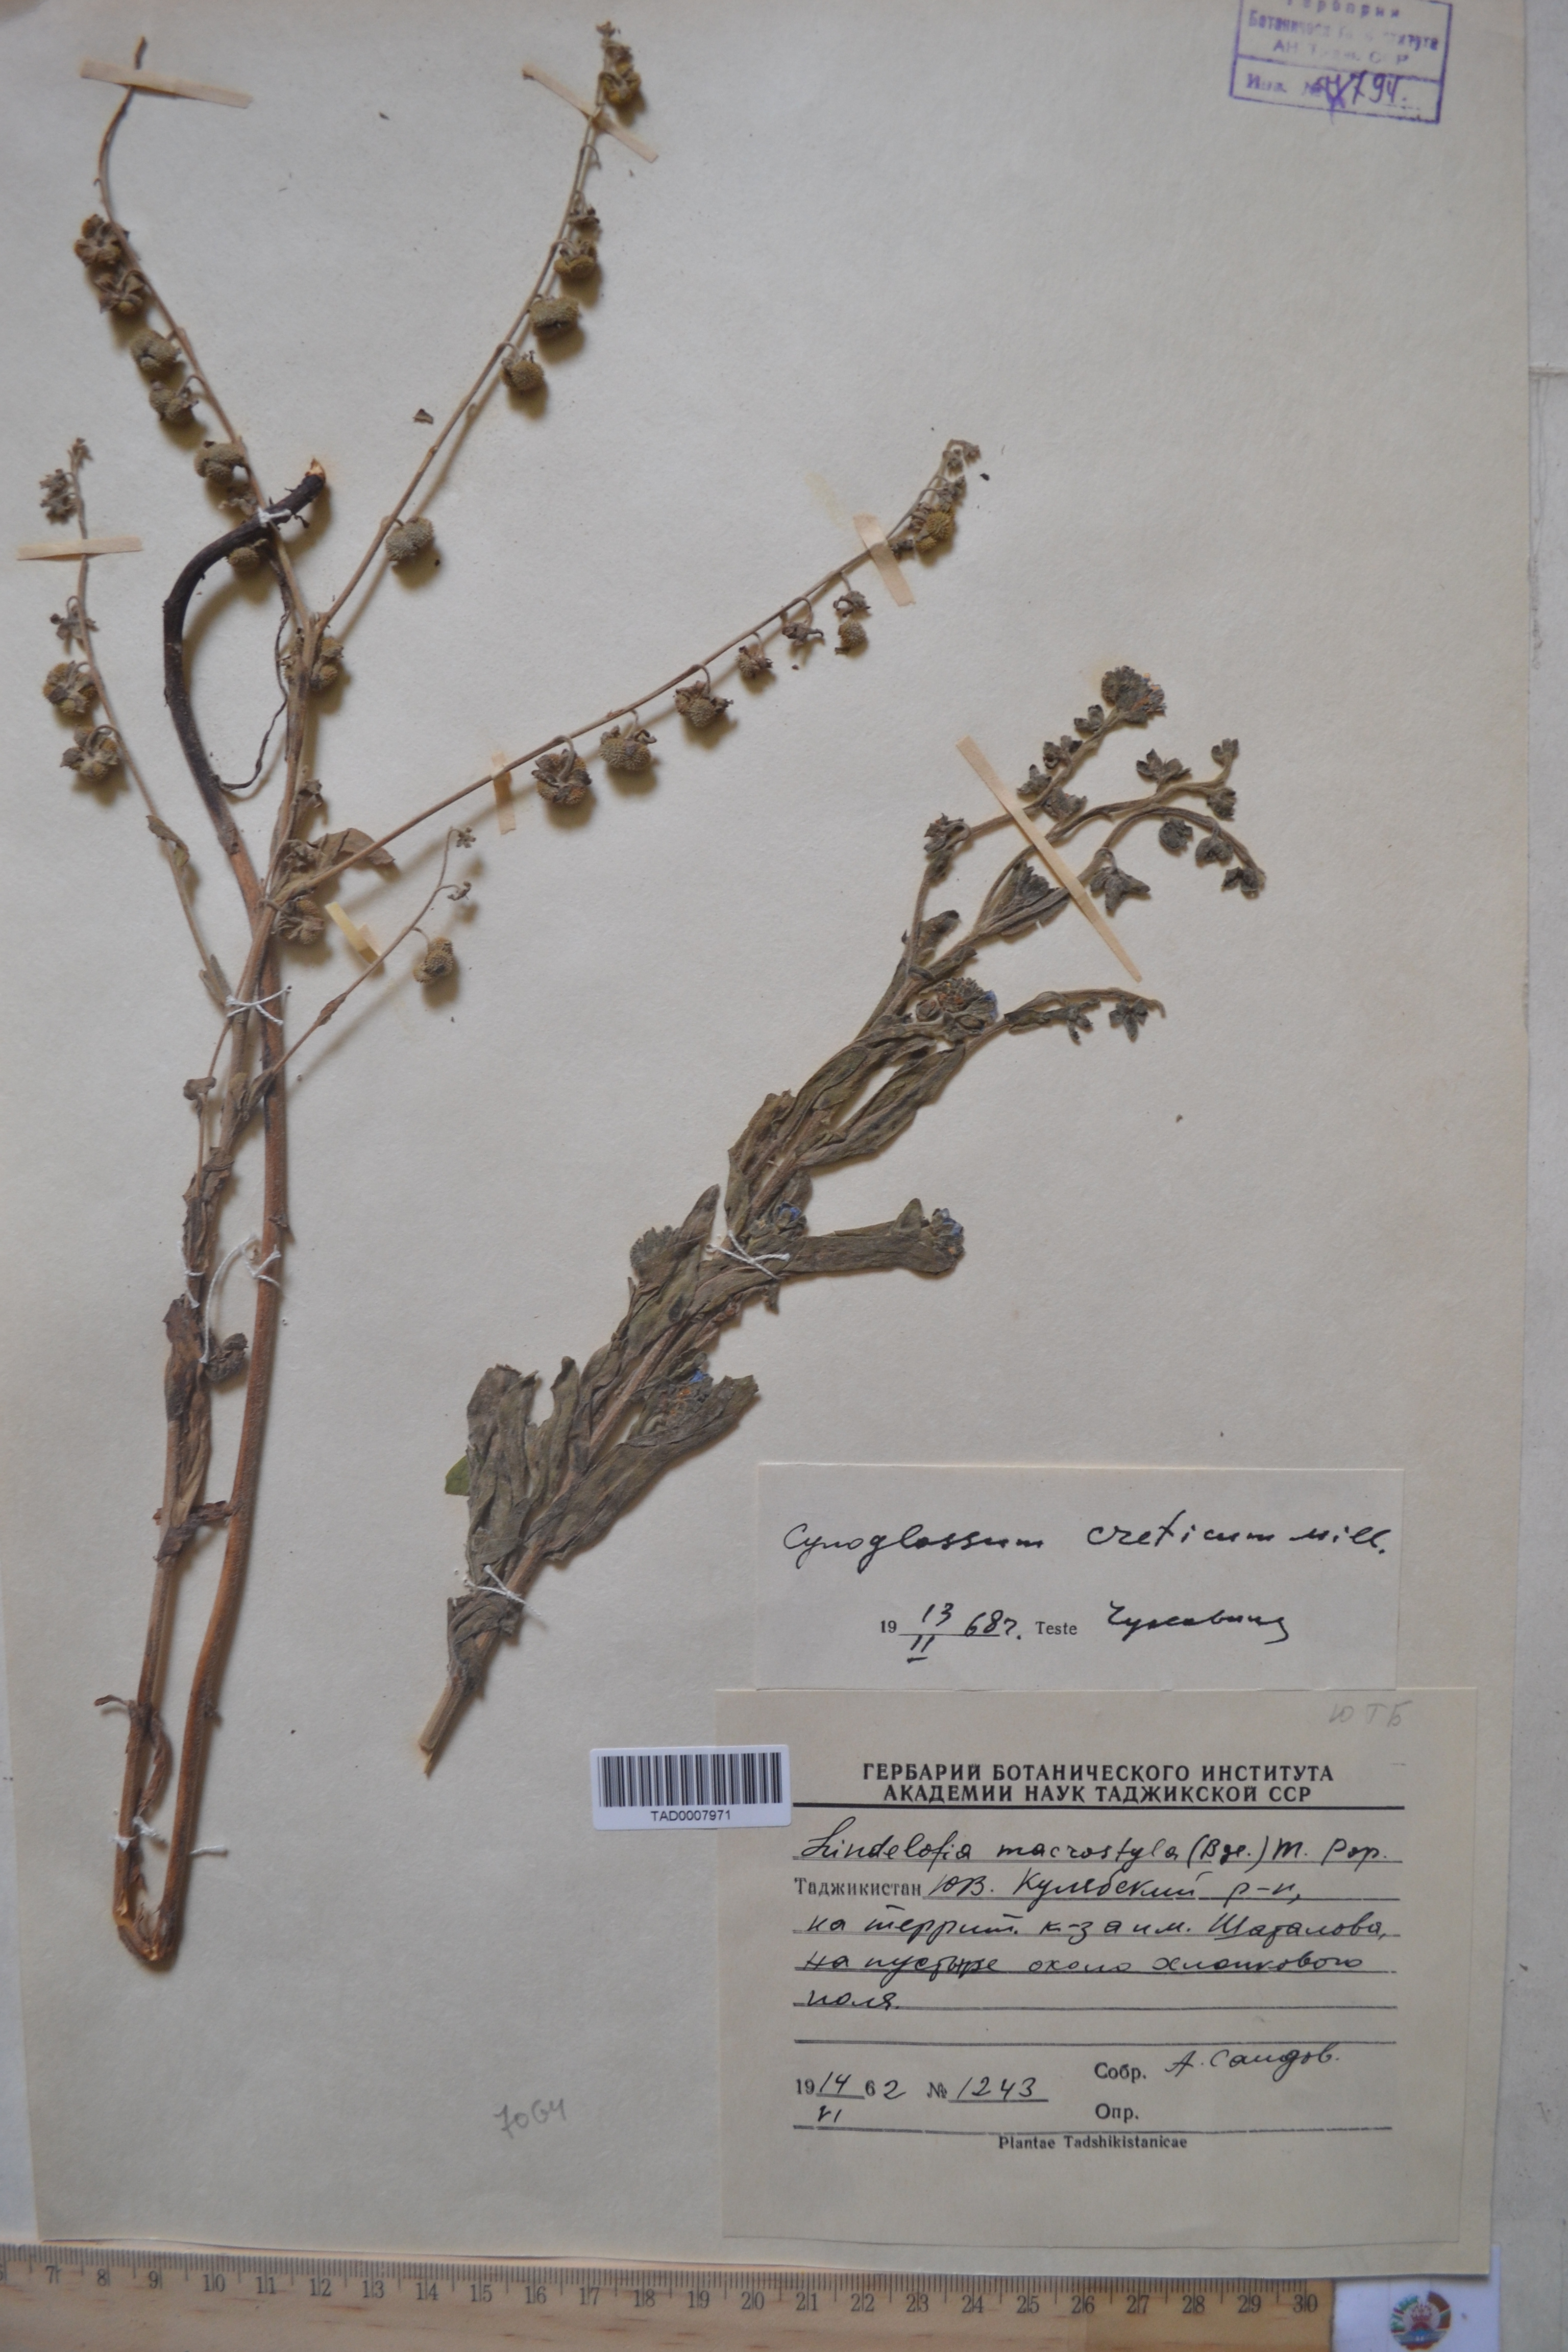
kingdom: Plantae
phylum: Tracheophyta
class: Magnoliopsida
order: Boraginales
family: Boraginaceae
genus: Cynoglossum
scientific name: Cynoglossum creticum
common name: Blue hound's tongue
